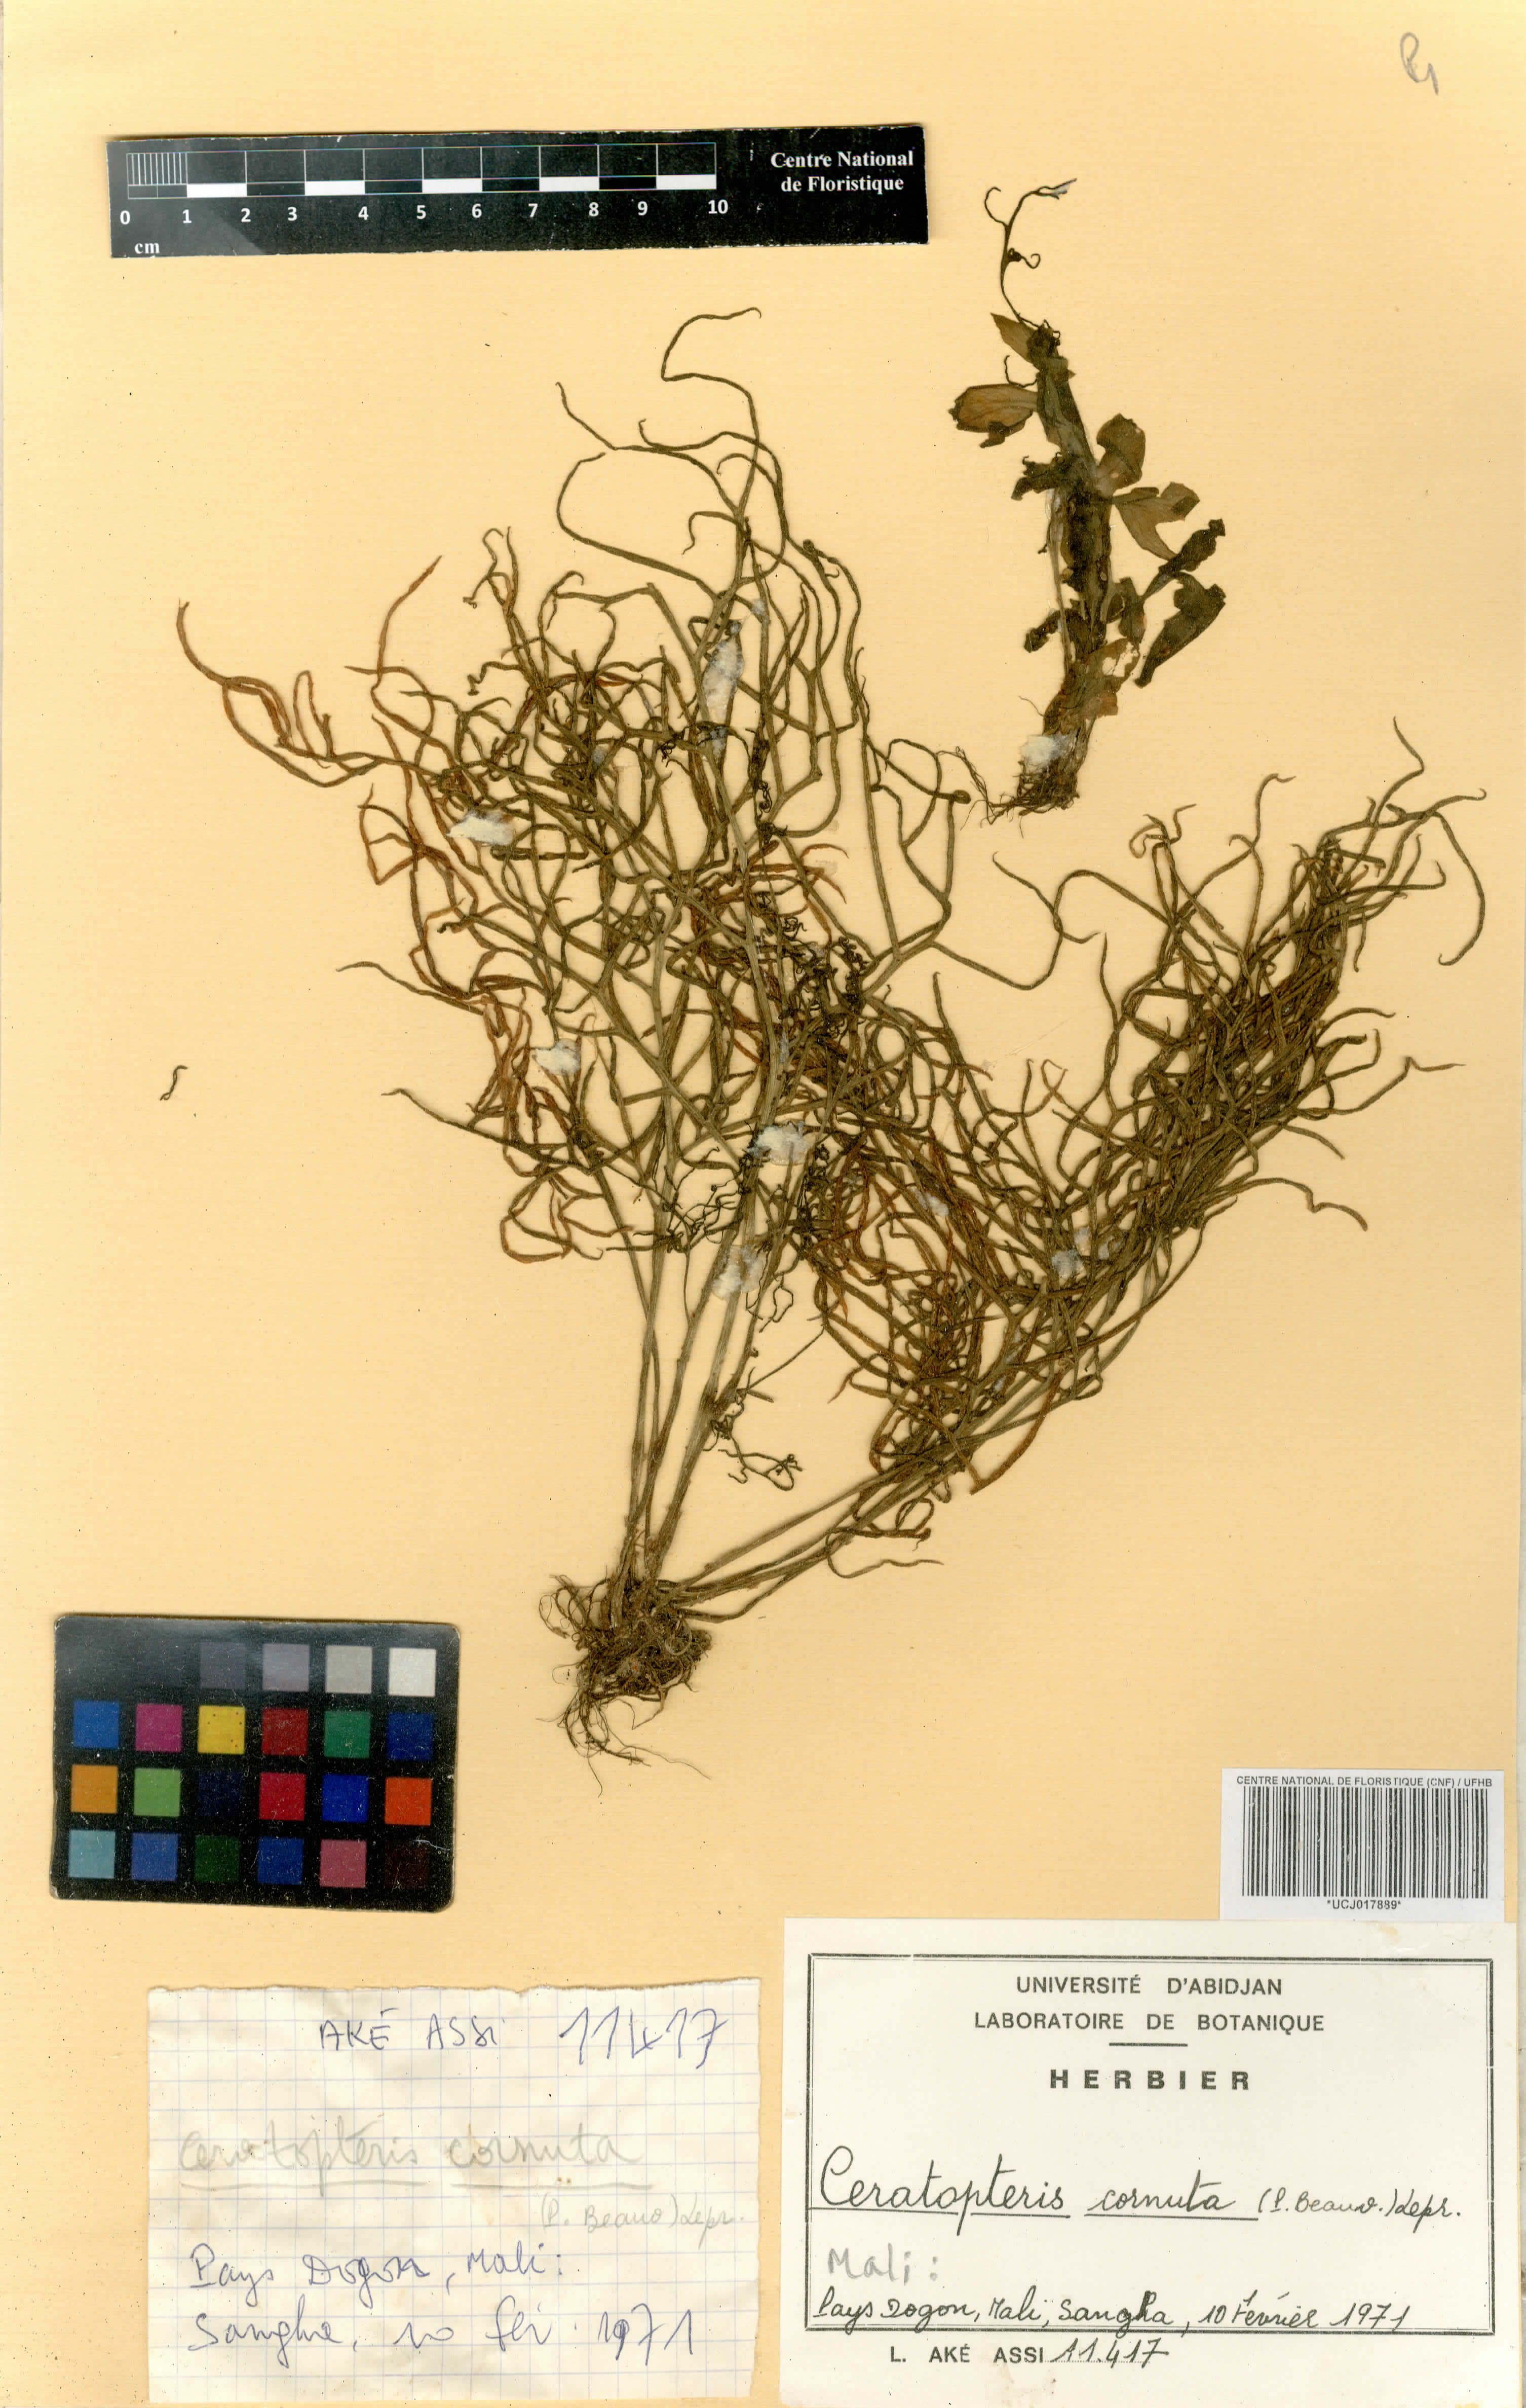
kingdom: Plantae
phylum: Tracheophyta
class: Polypodiopsida
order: Polypodiales
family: Pteridaceae
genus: Ceratopteris
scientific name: Ceratopteris cornuta
